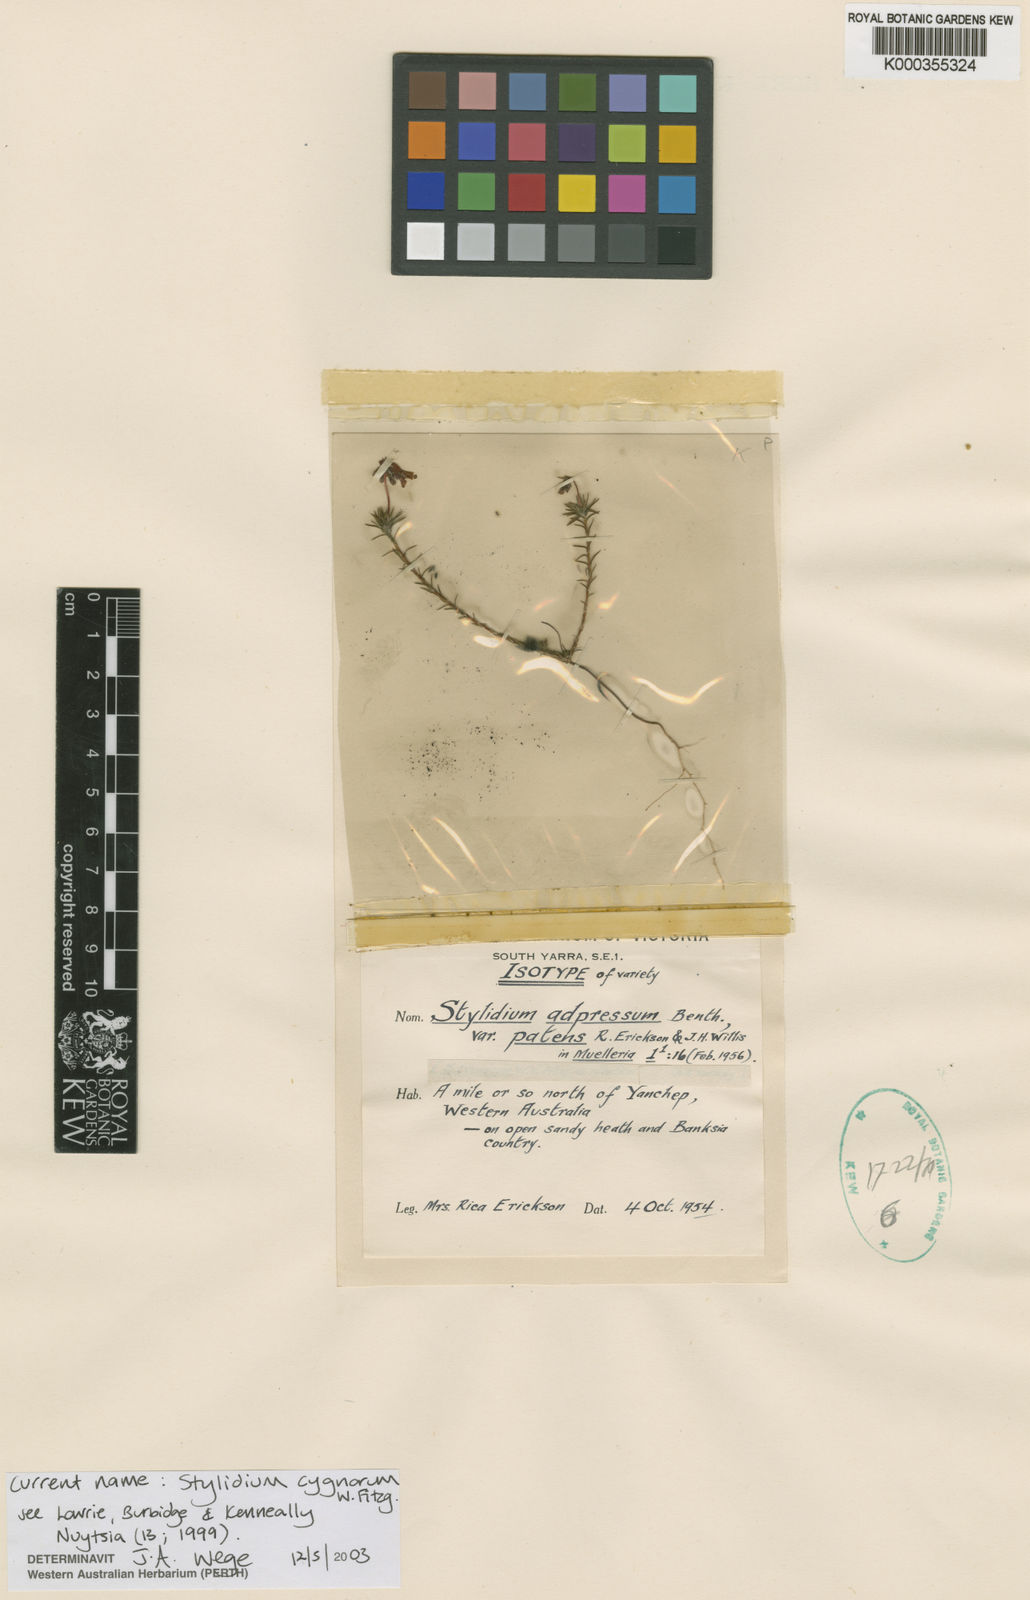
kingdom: Plantae
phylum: Tracheophyta
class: Magnoliopsida
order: Asterales
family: Stylidiaceae
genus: Stylidium
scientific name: Stylidium cygnorum
